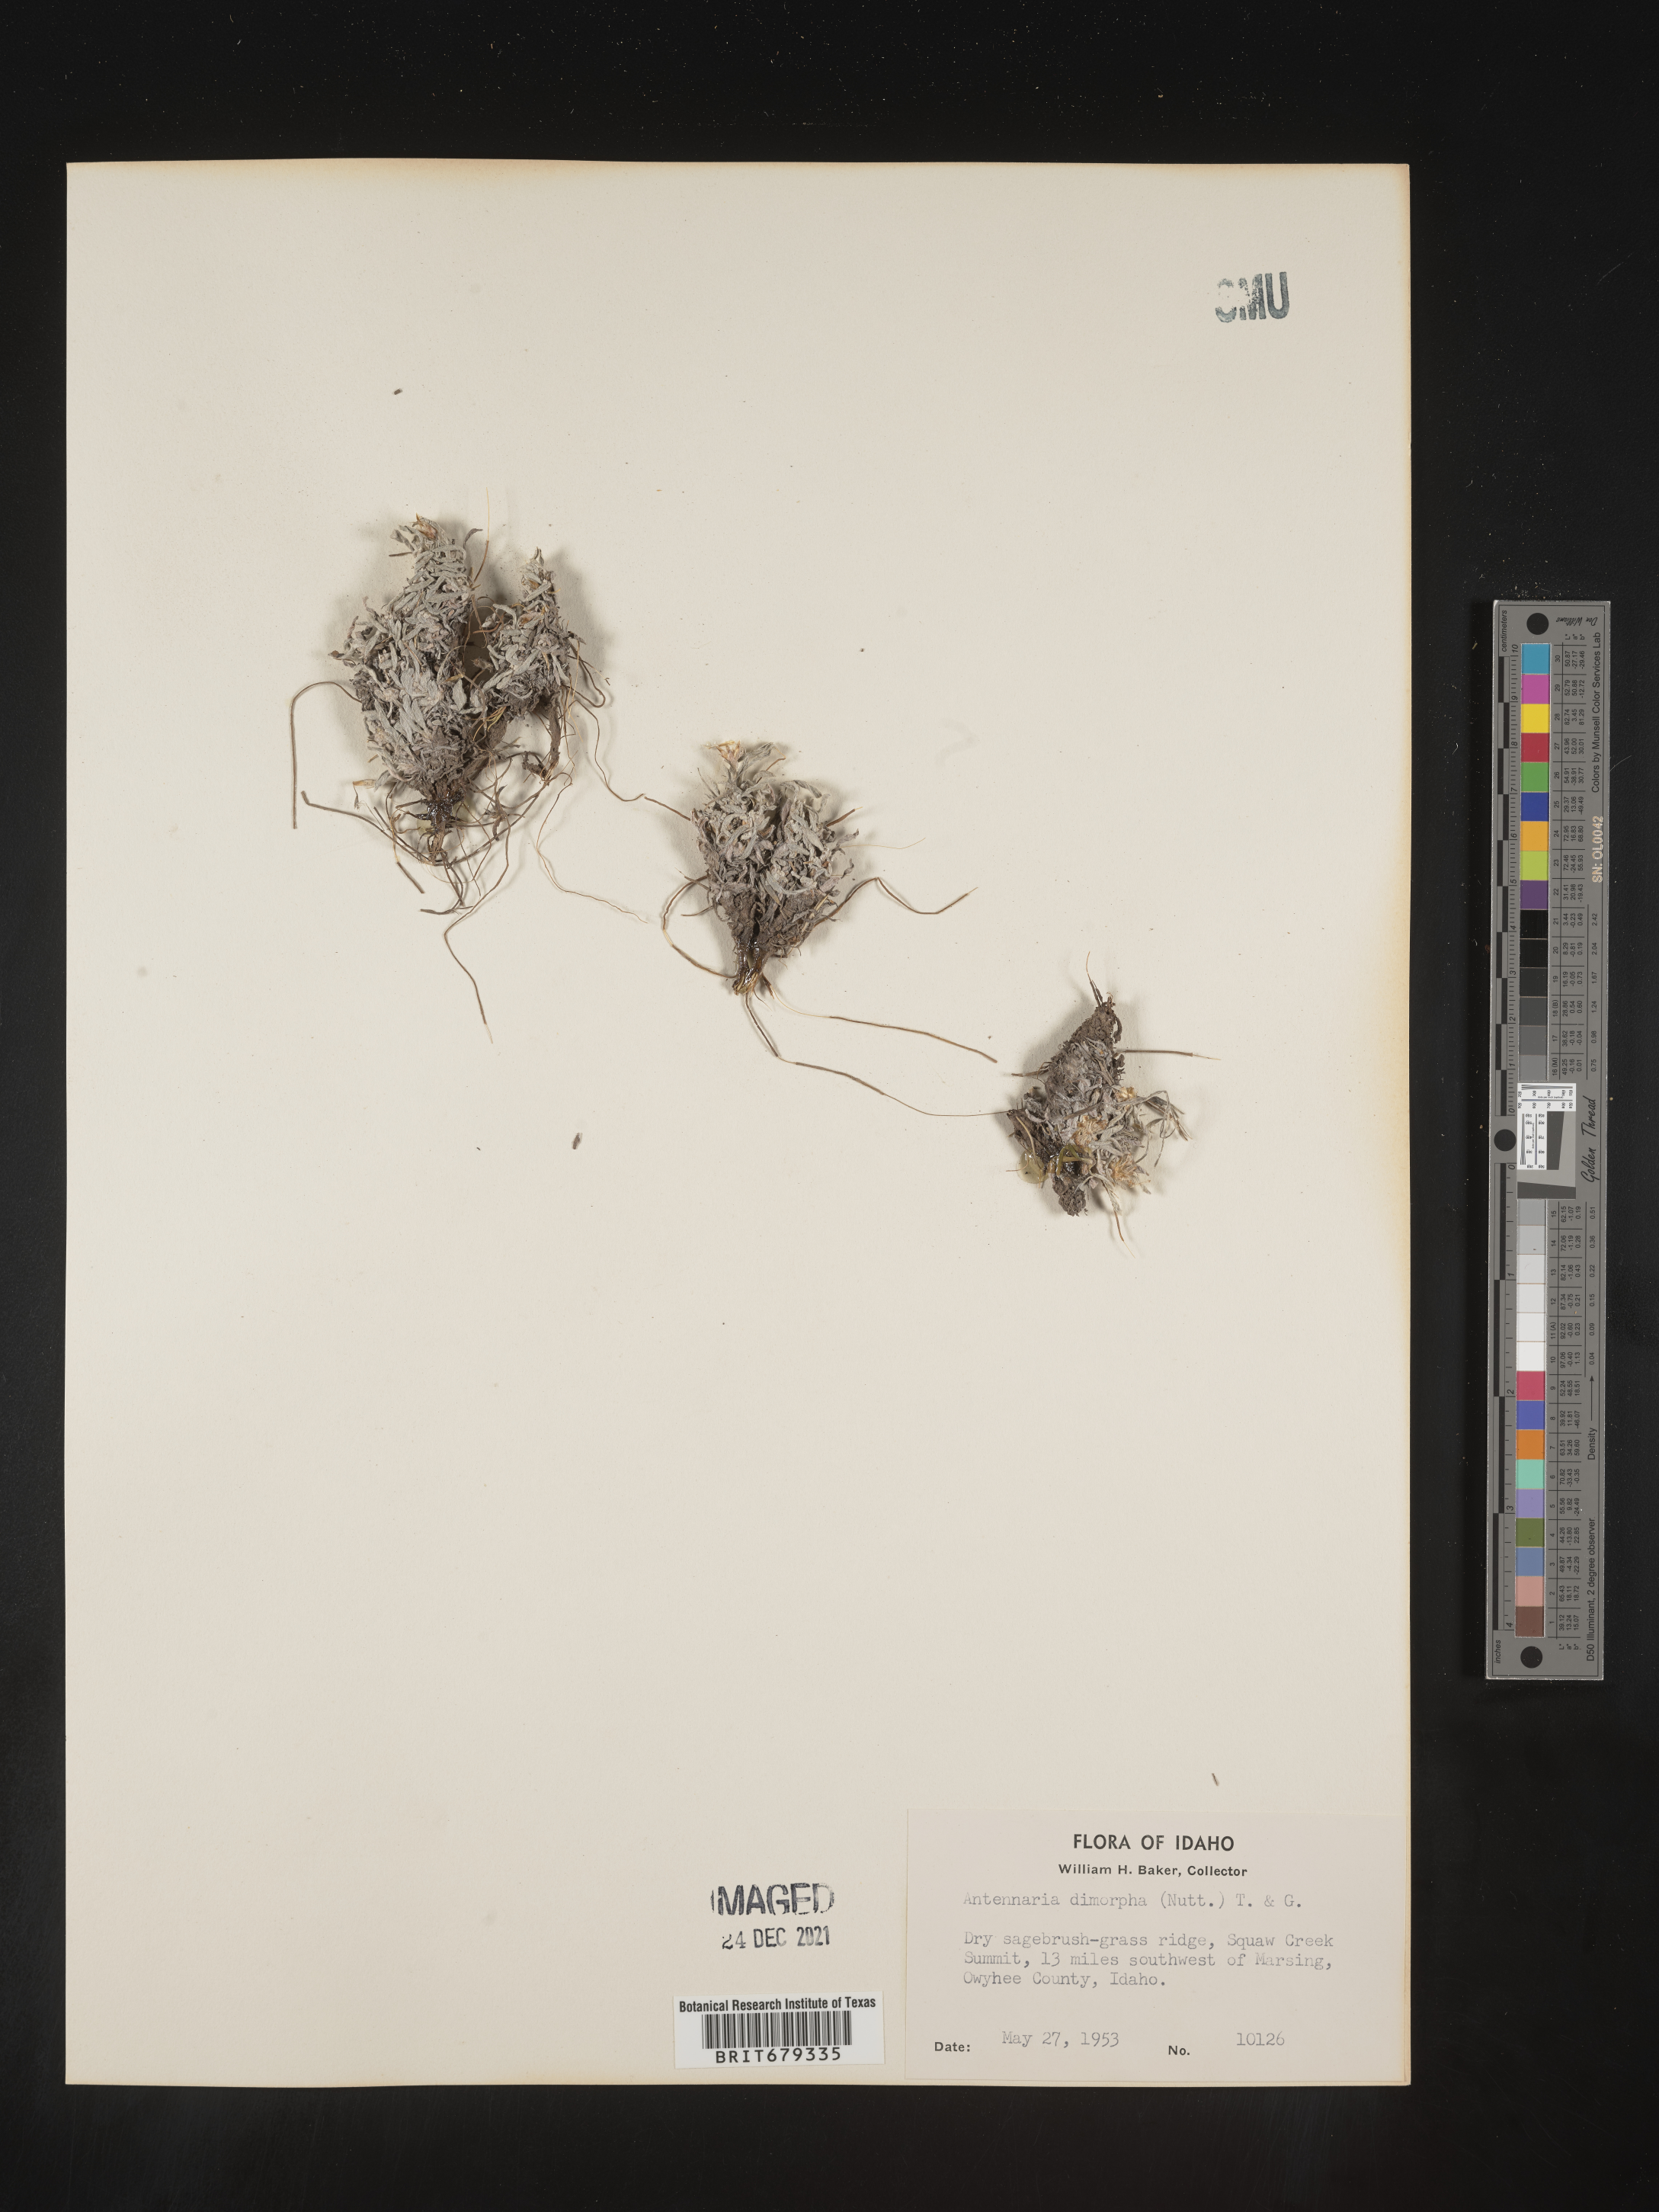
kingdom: Plantae
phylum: Tracheophyta
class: Magnoliopsida
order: Asterales
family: Asteraceae
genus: Antennaria
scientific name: Antennaria dimorpha
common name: Cushion pussytoes
